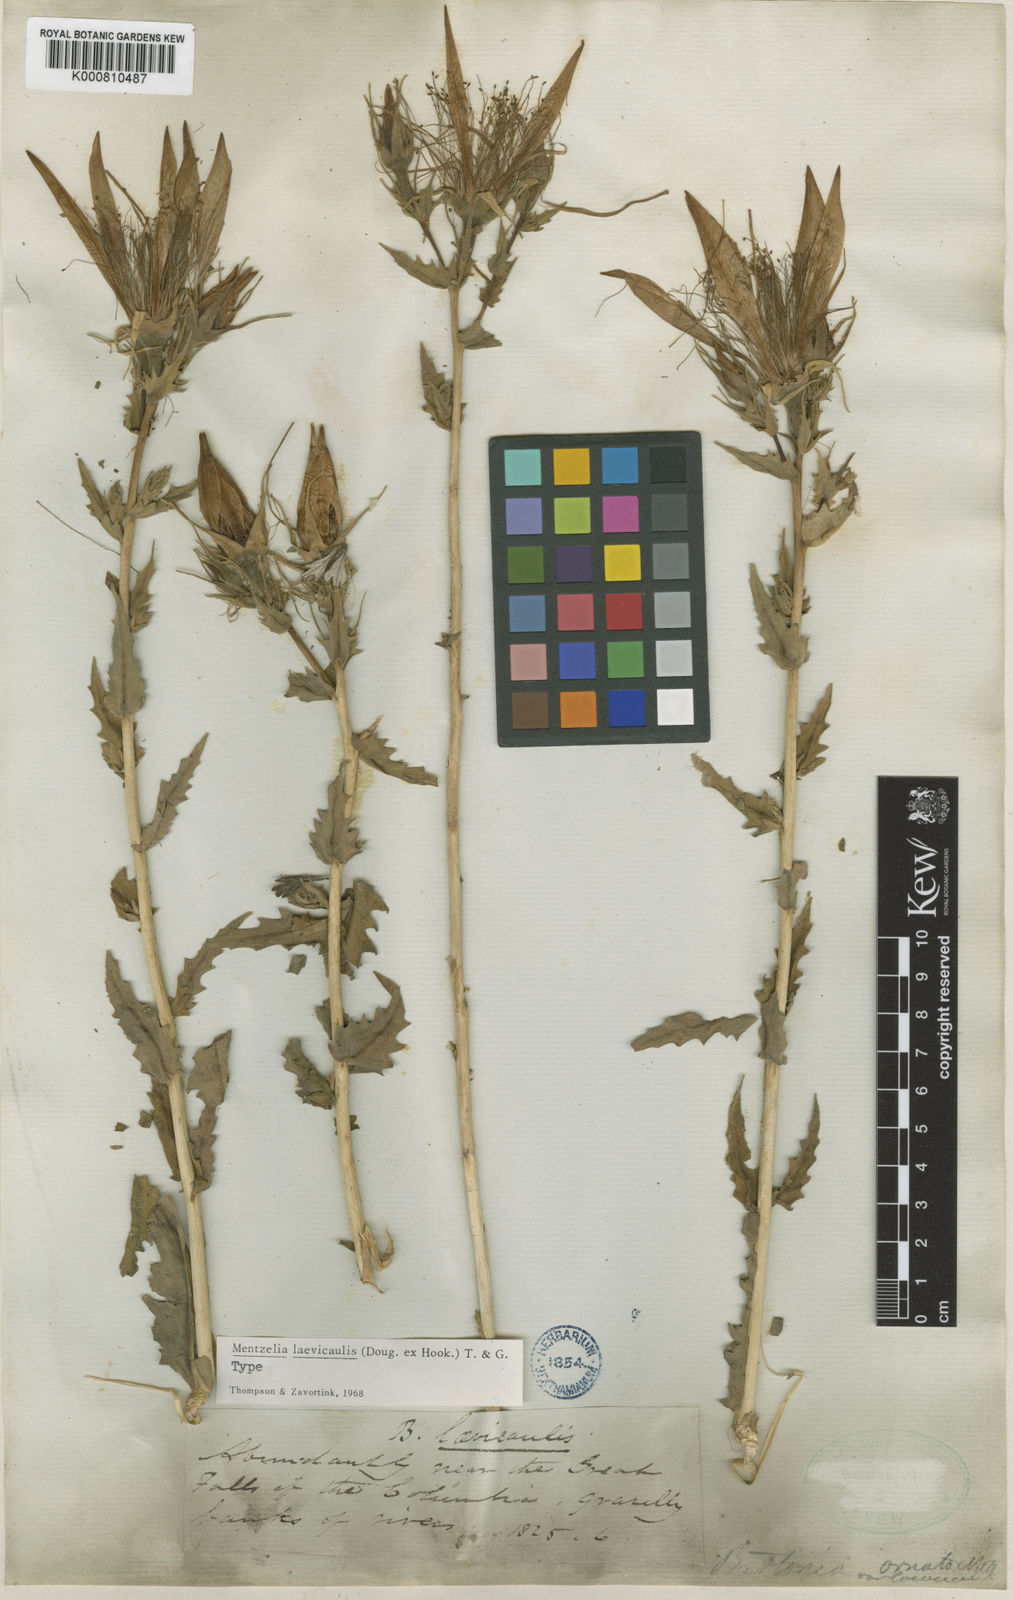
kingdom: Plantae
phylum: Tracheophyta
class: Magnoliopsida
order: Cornales
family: Loasaceae
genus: Mentzelia
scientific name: Mentzelia laevicaulis
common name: Smooth-stem blazingstar
